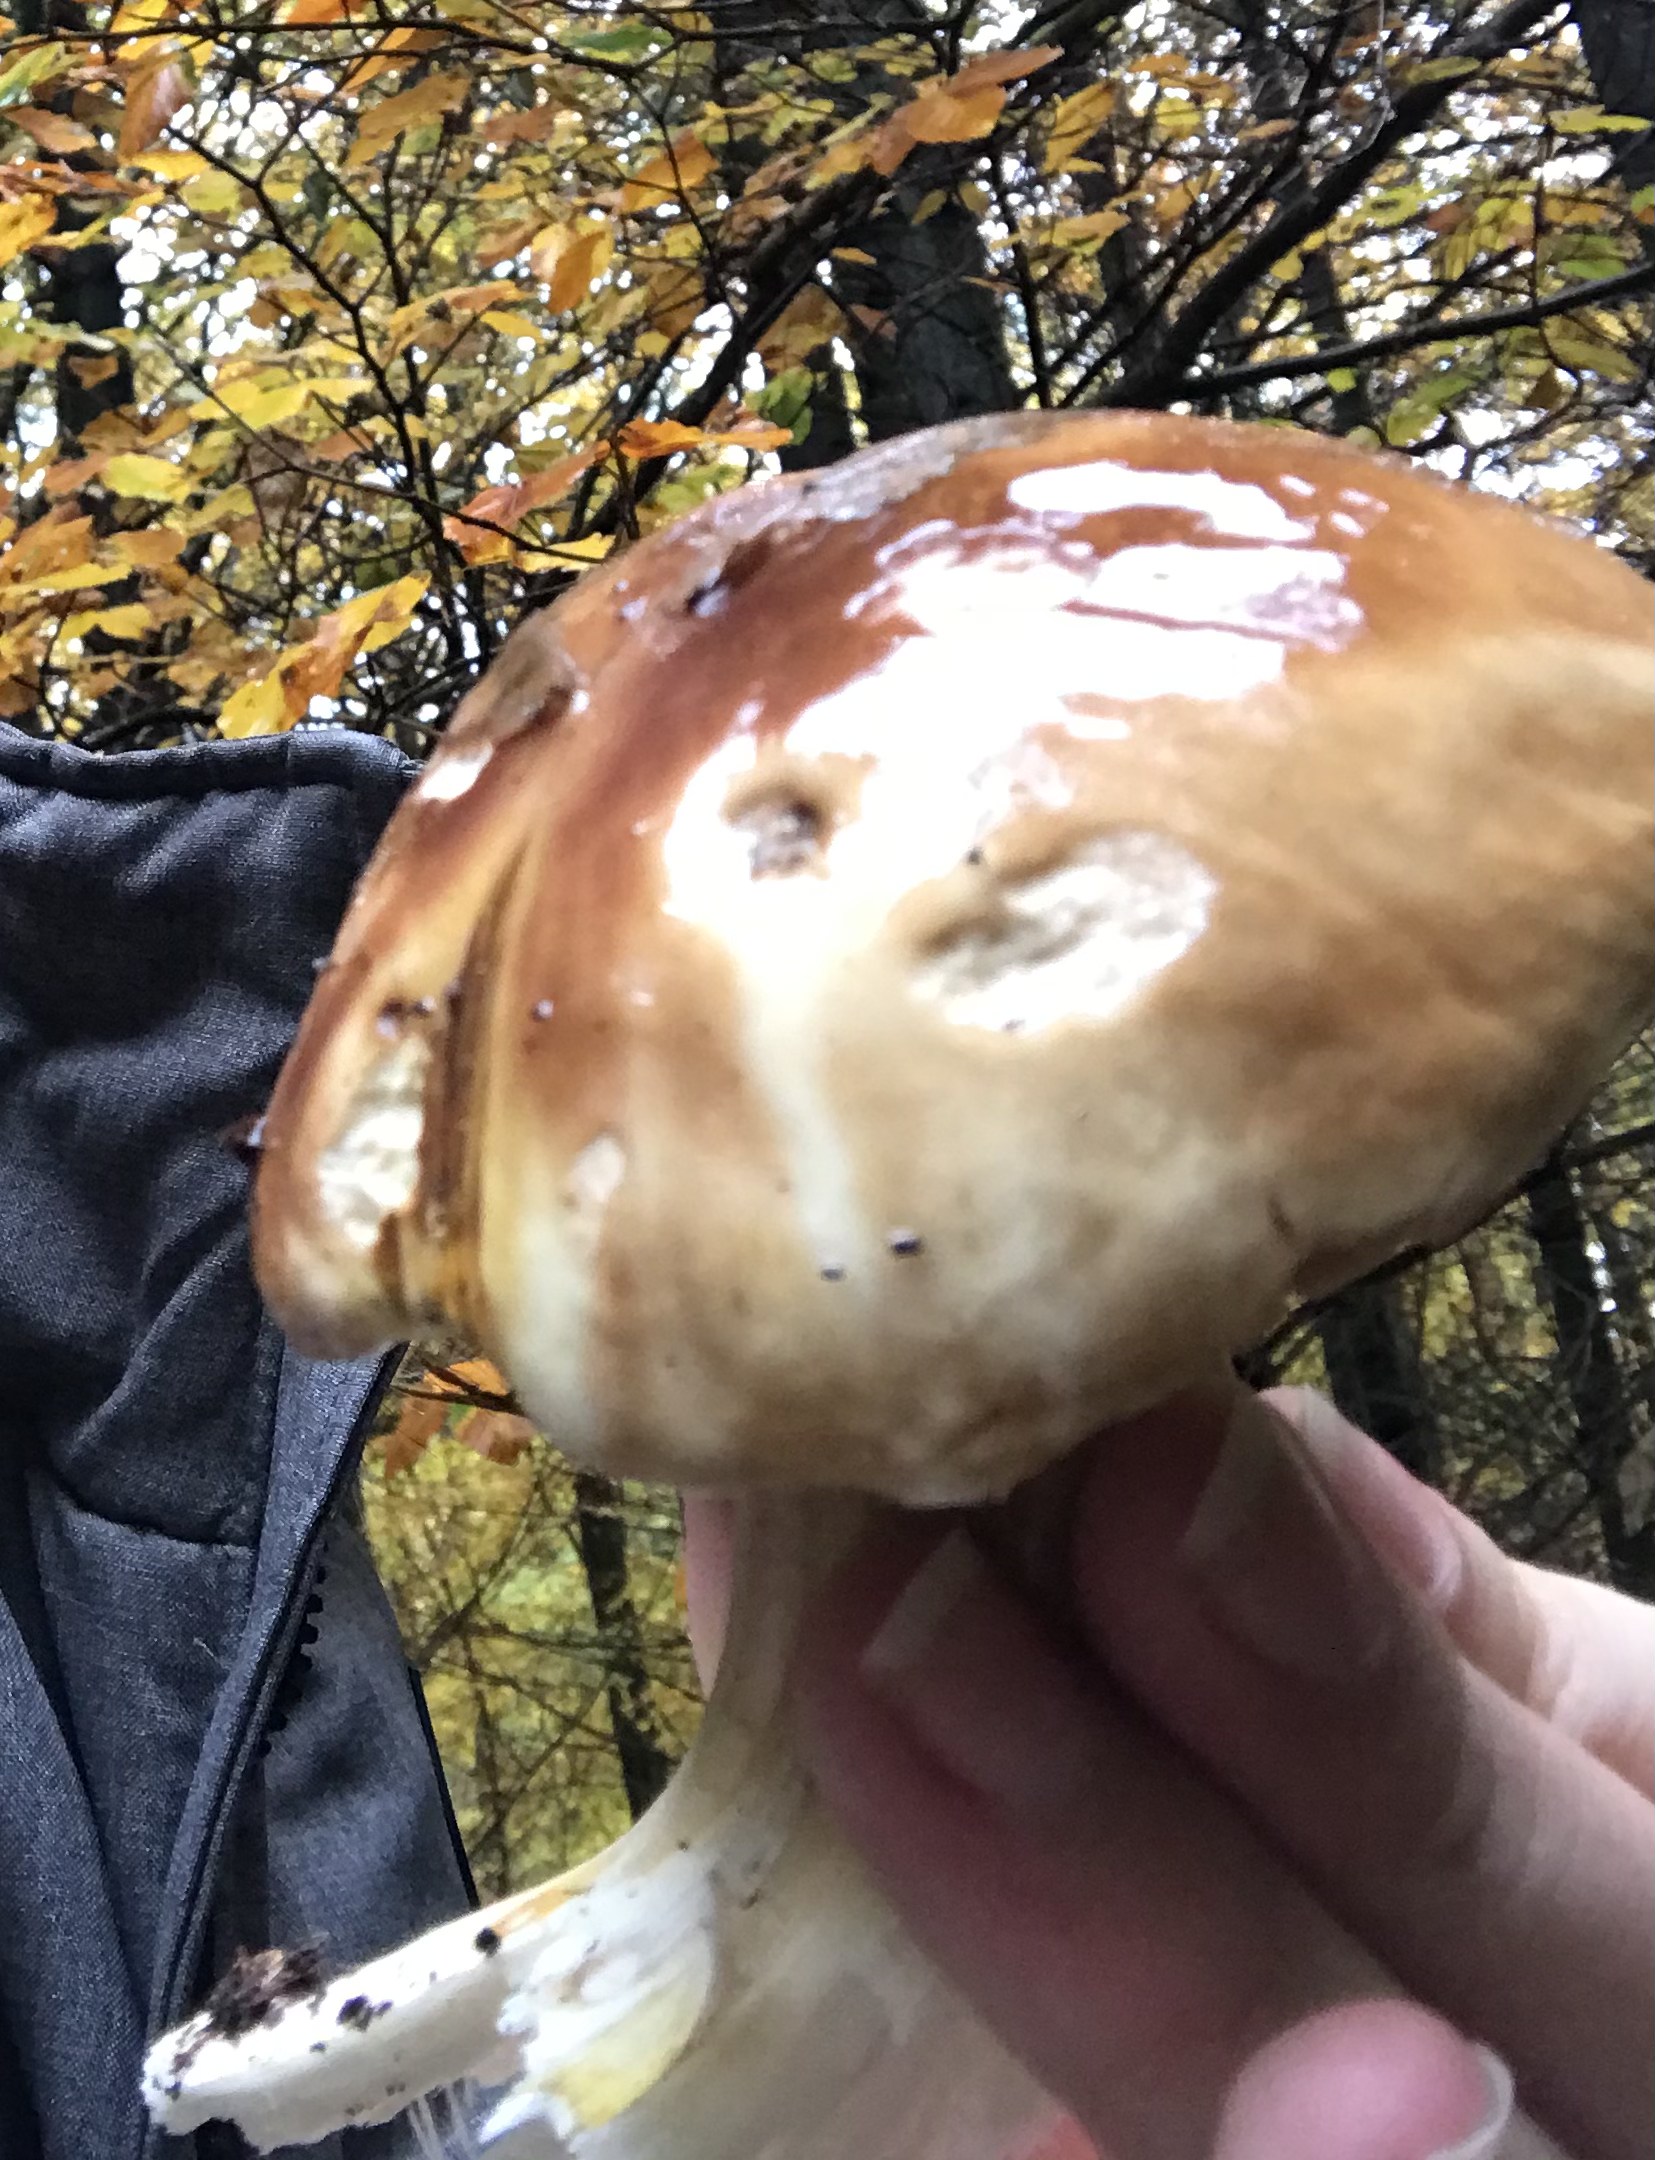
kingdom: Fungi
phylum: Basidiomycota
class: Agaricomycetes
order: Boletales
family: Boletaceae
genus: Boletus
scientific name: Boletus edulis
